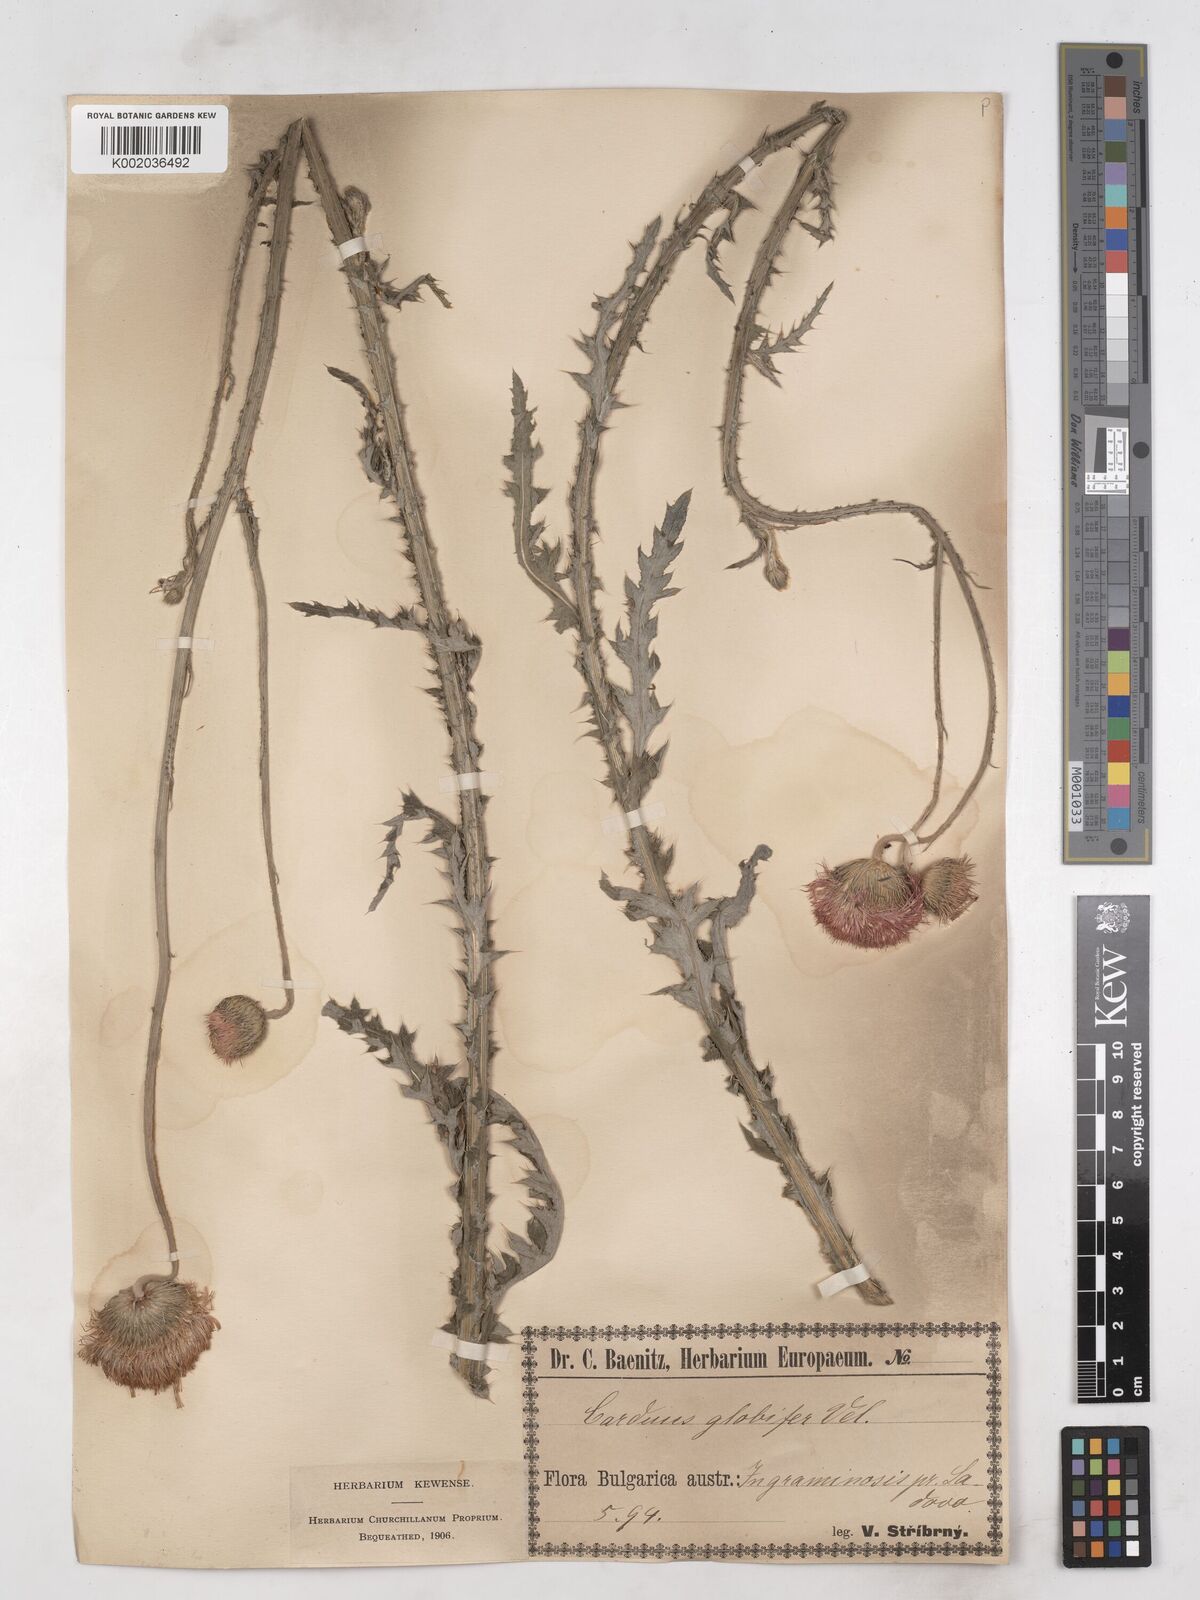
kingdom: Plantae
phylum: Tracheophyta
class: Magnoliopsida
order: Asterales
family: Asteraceae
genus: Carduus
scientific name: Carduus candicans
